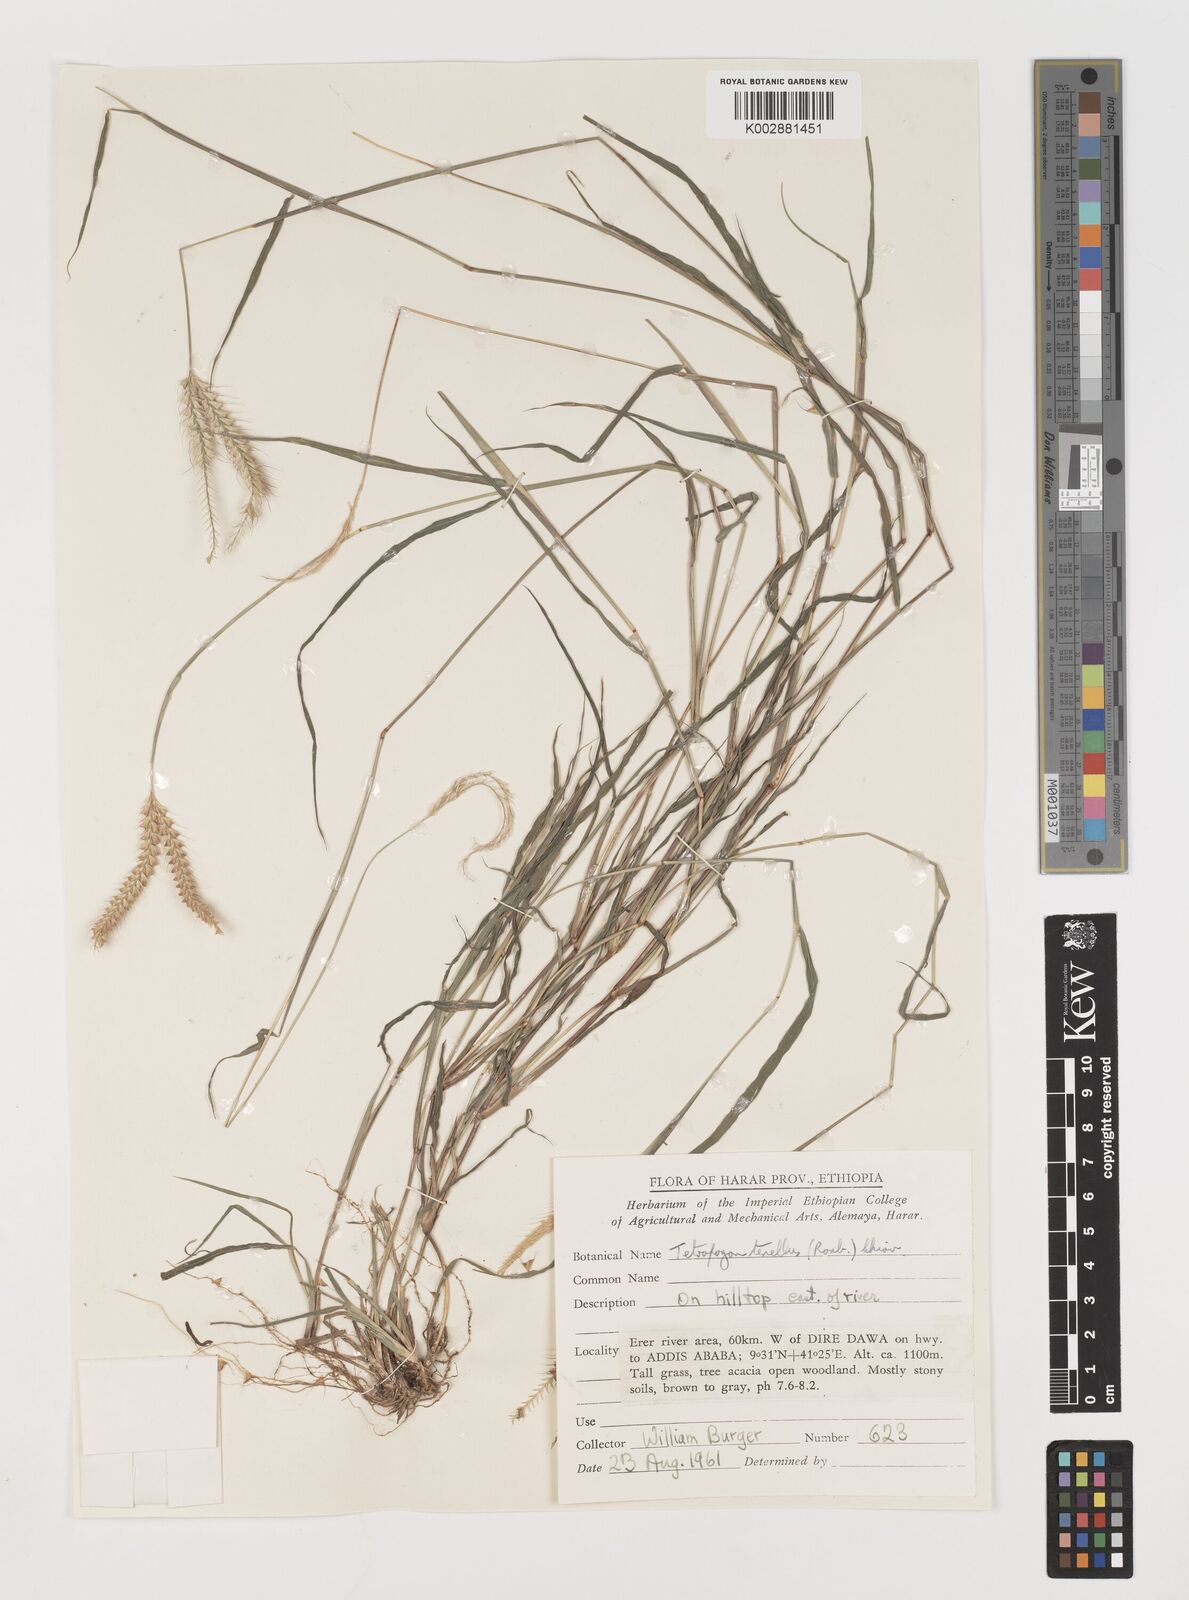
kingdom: Plantae
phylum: Tracheophyta
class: Liliopsida
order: Poales
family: Poaceae
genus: Tetrapogon
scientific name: Tetrapogon tenellus
